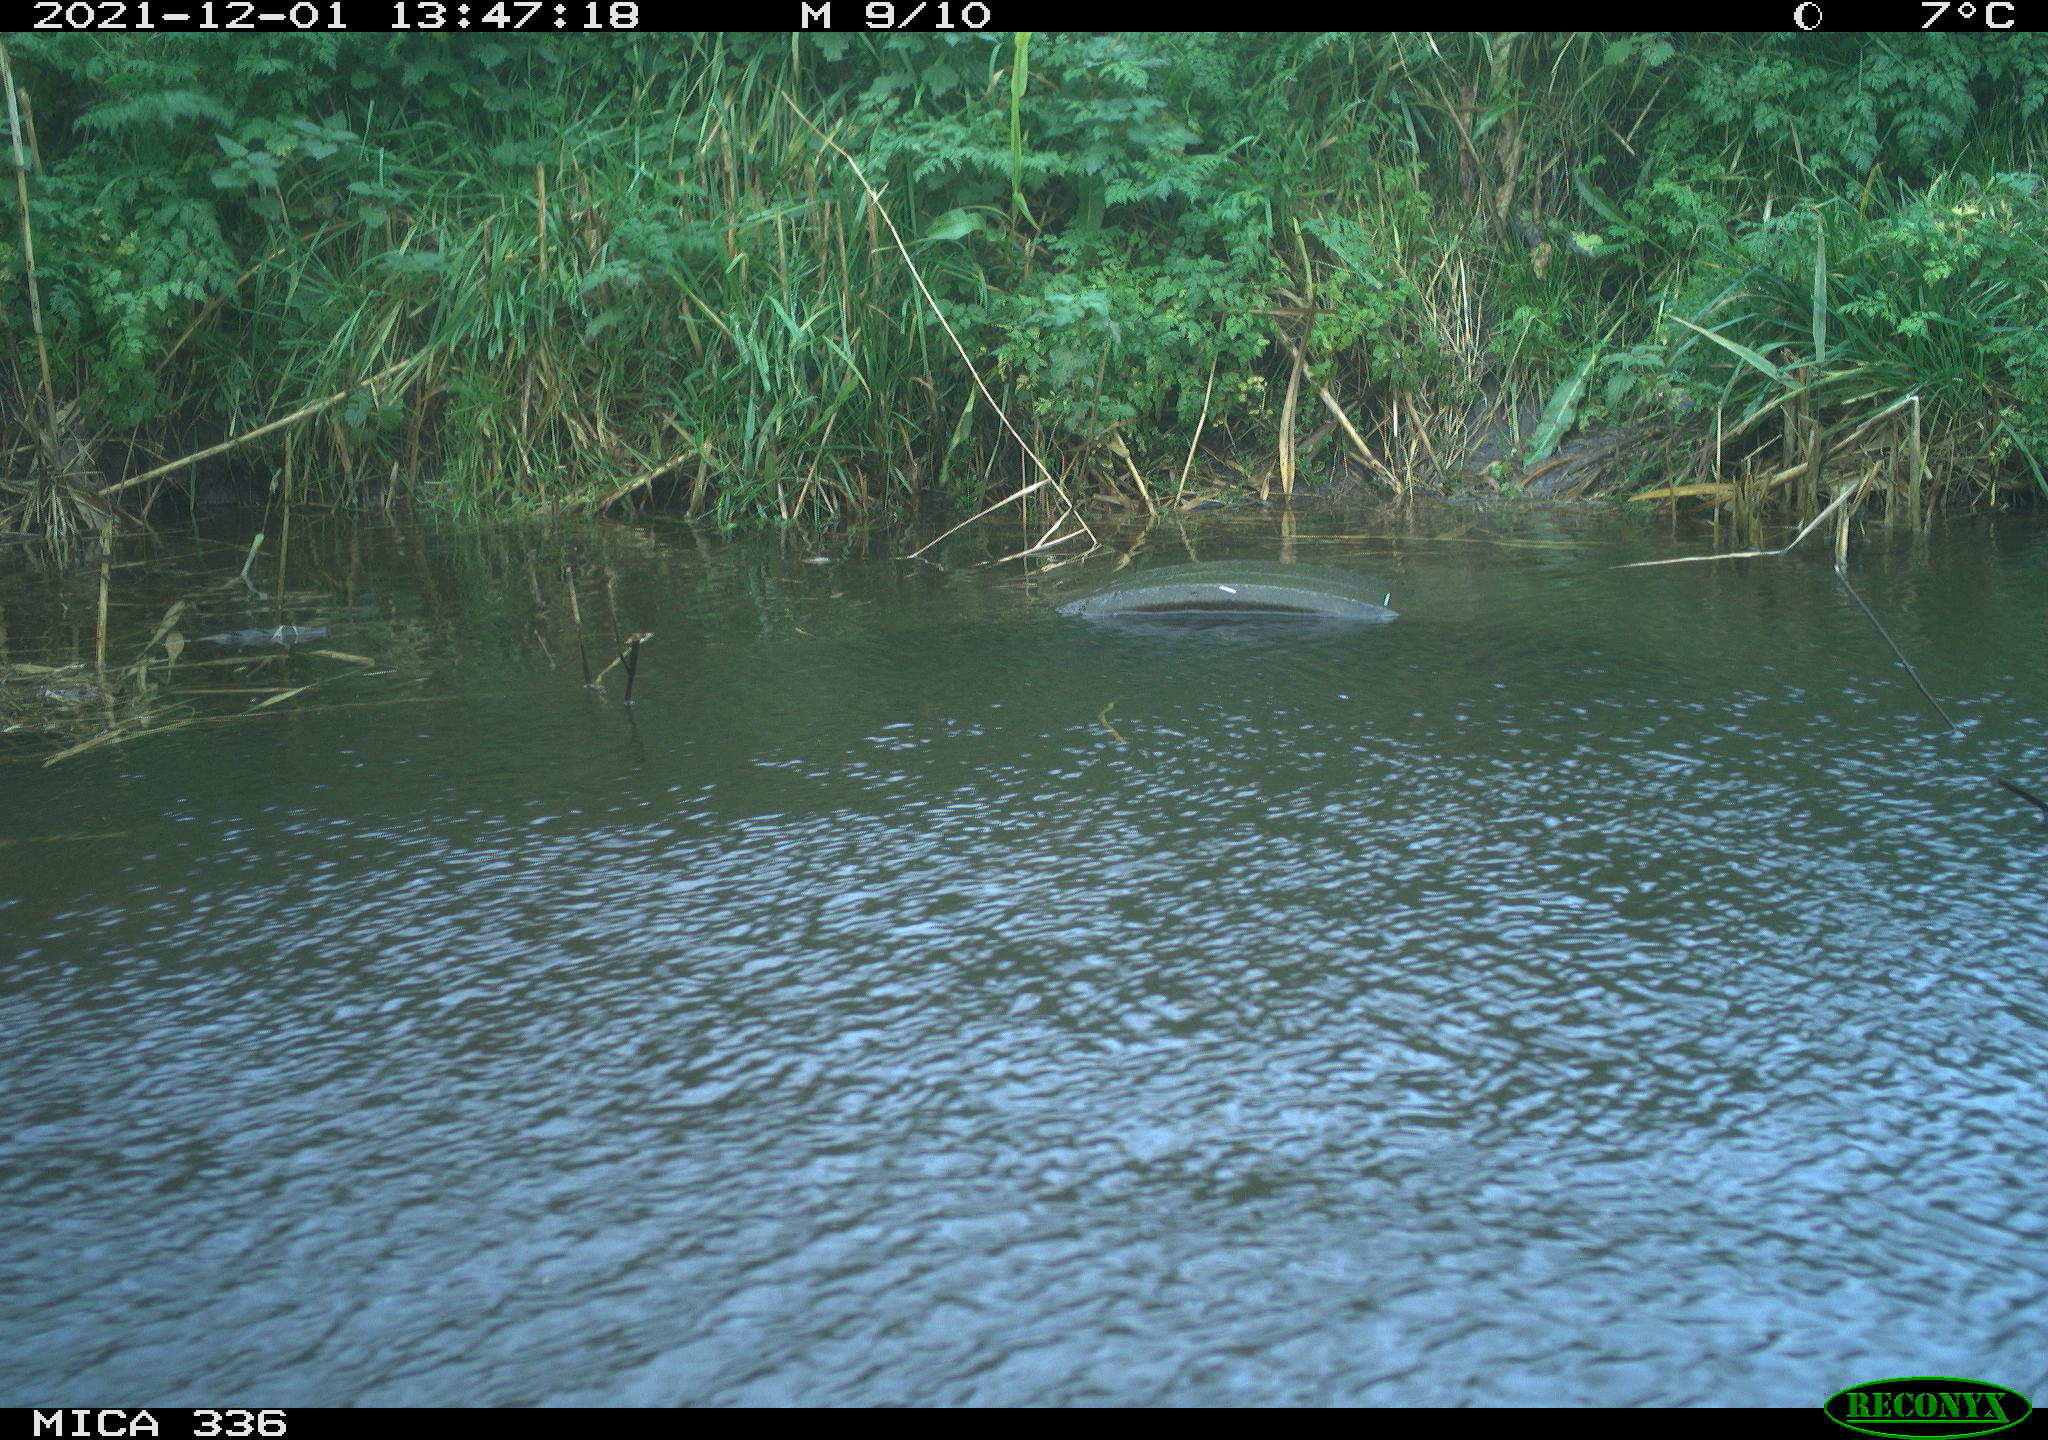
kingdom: Animalia
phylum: Chordata
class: Aves
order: Gruiformes
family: Rallidae
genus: Gallinula
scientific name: Gallinula chloropus
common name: Common moorhen
